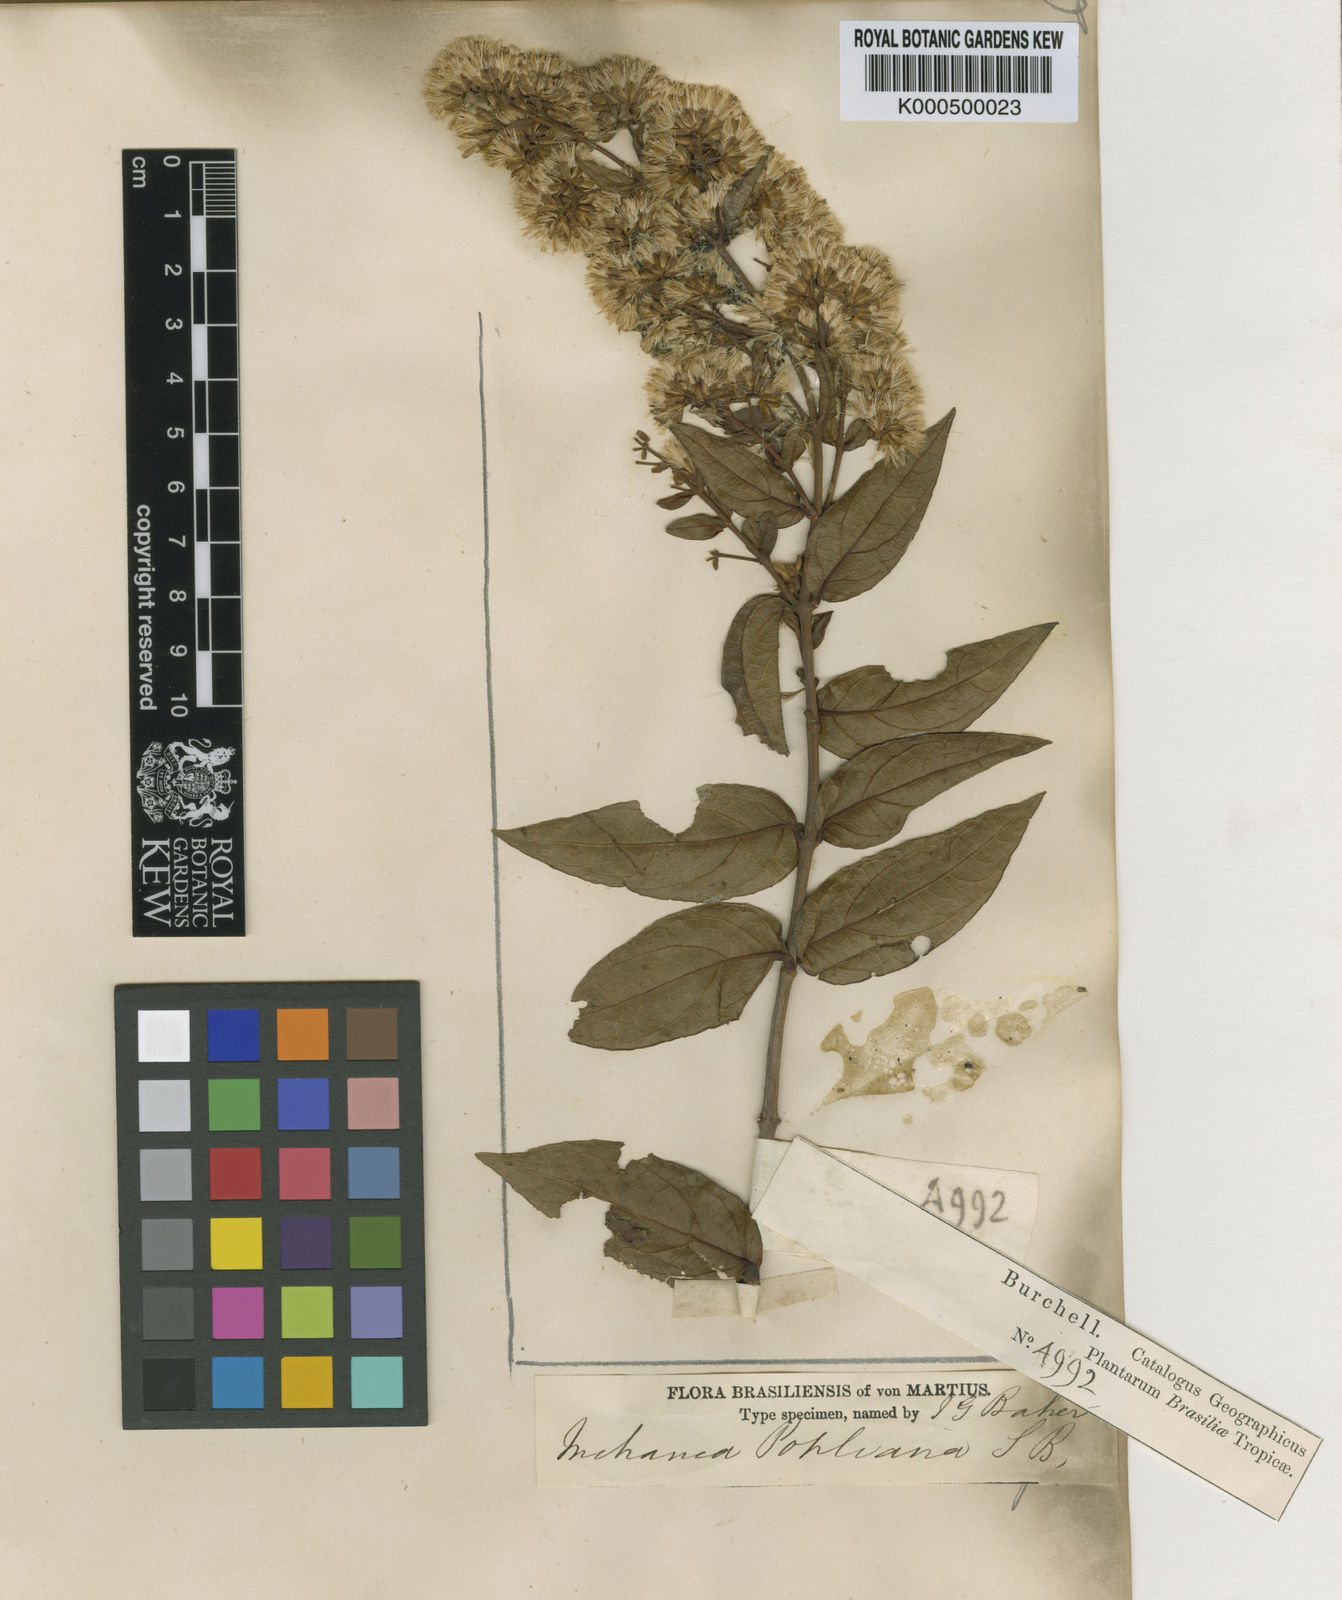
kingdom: Plantae
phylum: Tracheophyta
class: Magnoliopsida
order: Asterales
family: Asteraceae
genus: Mikania
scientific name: Mikania pohliana
